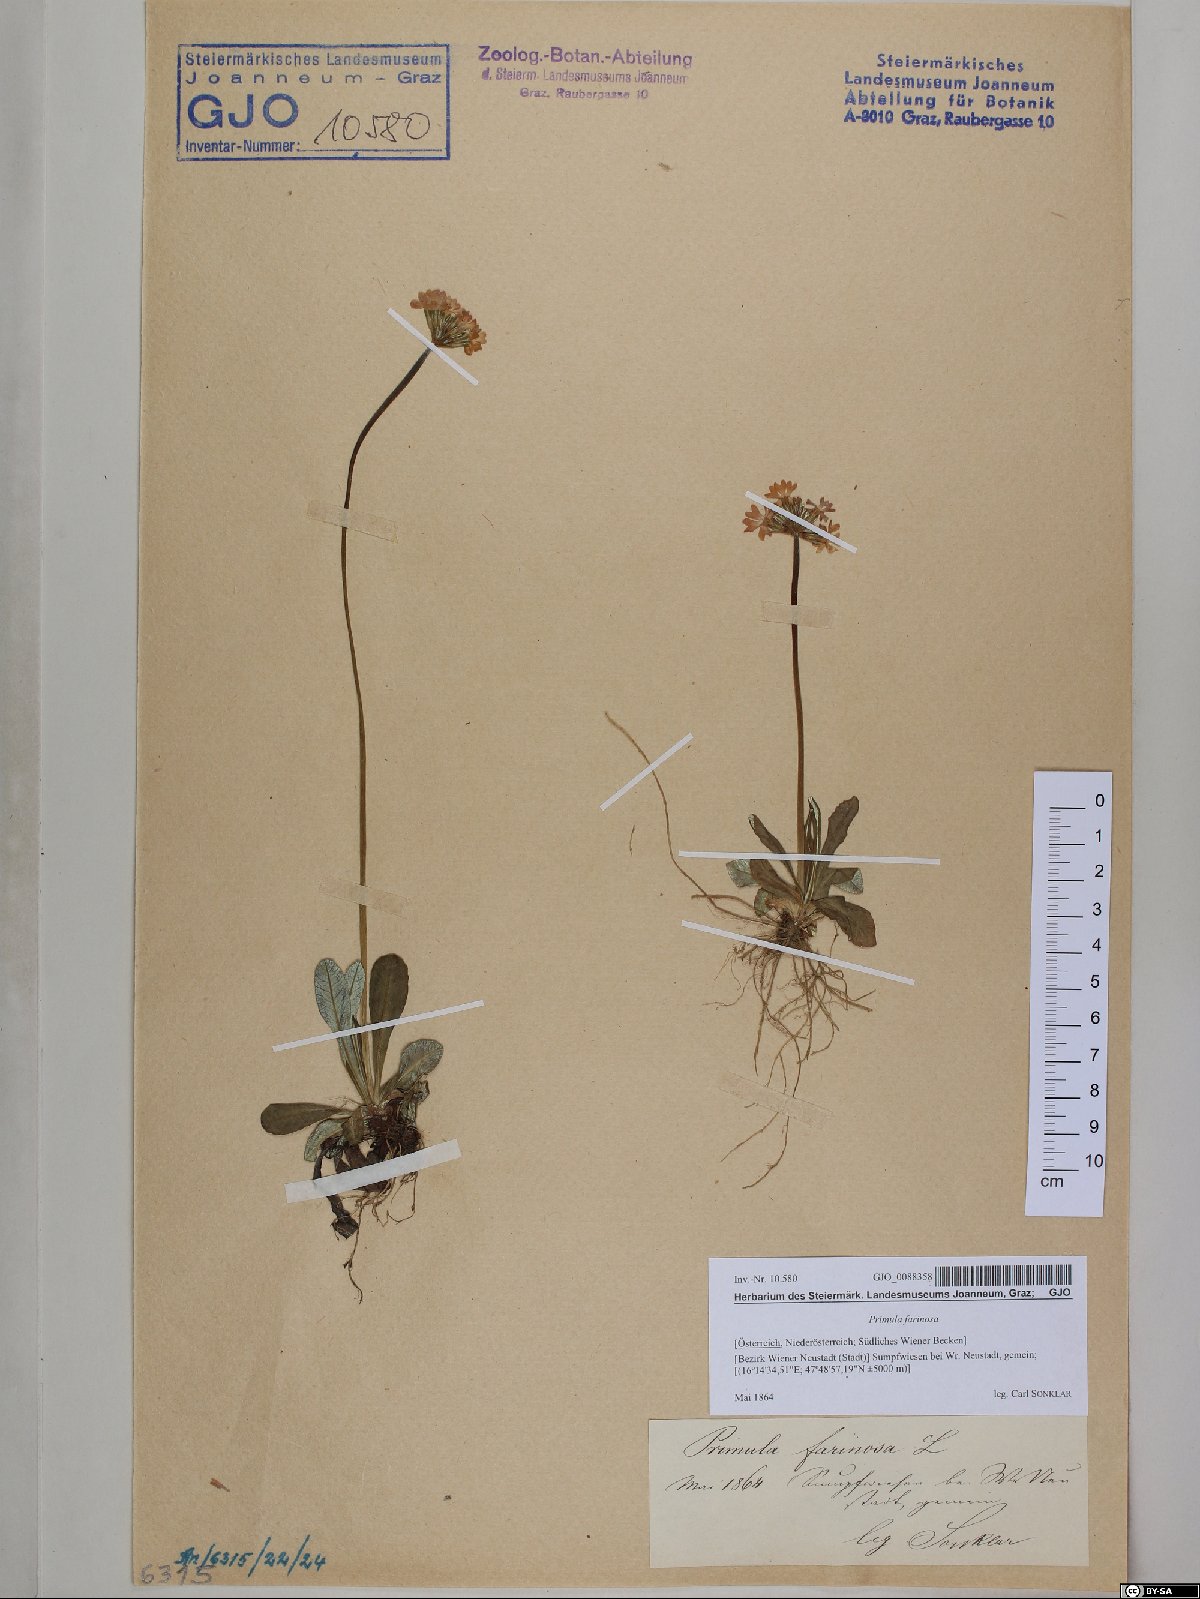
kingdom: Plantae
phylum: Tracheophyta
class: Magnoliopsida
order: Ericales
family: Primulaceae
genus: Primula
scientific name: Primula farinosa
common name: Bird's-eye primrose
